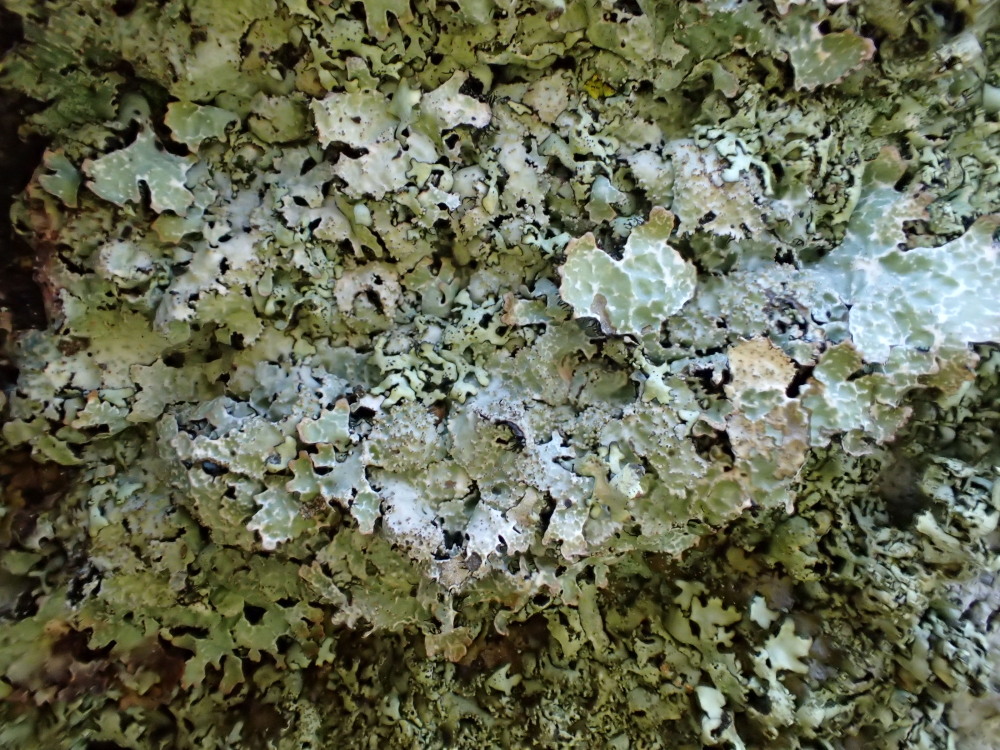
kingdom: Fungi
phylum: Ascomycota
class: Lecanoromycetes
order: Lecanorales
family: Parmeliaceae
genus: Parmelia
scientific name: Parmelia saxatilis
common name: farve-skållav
